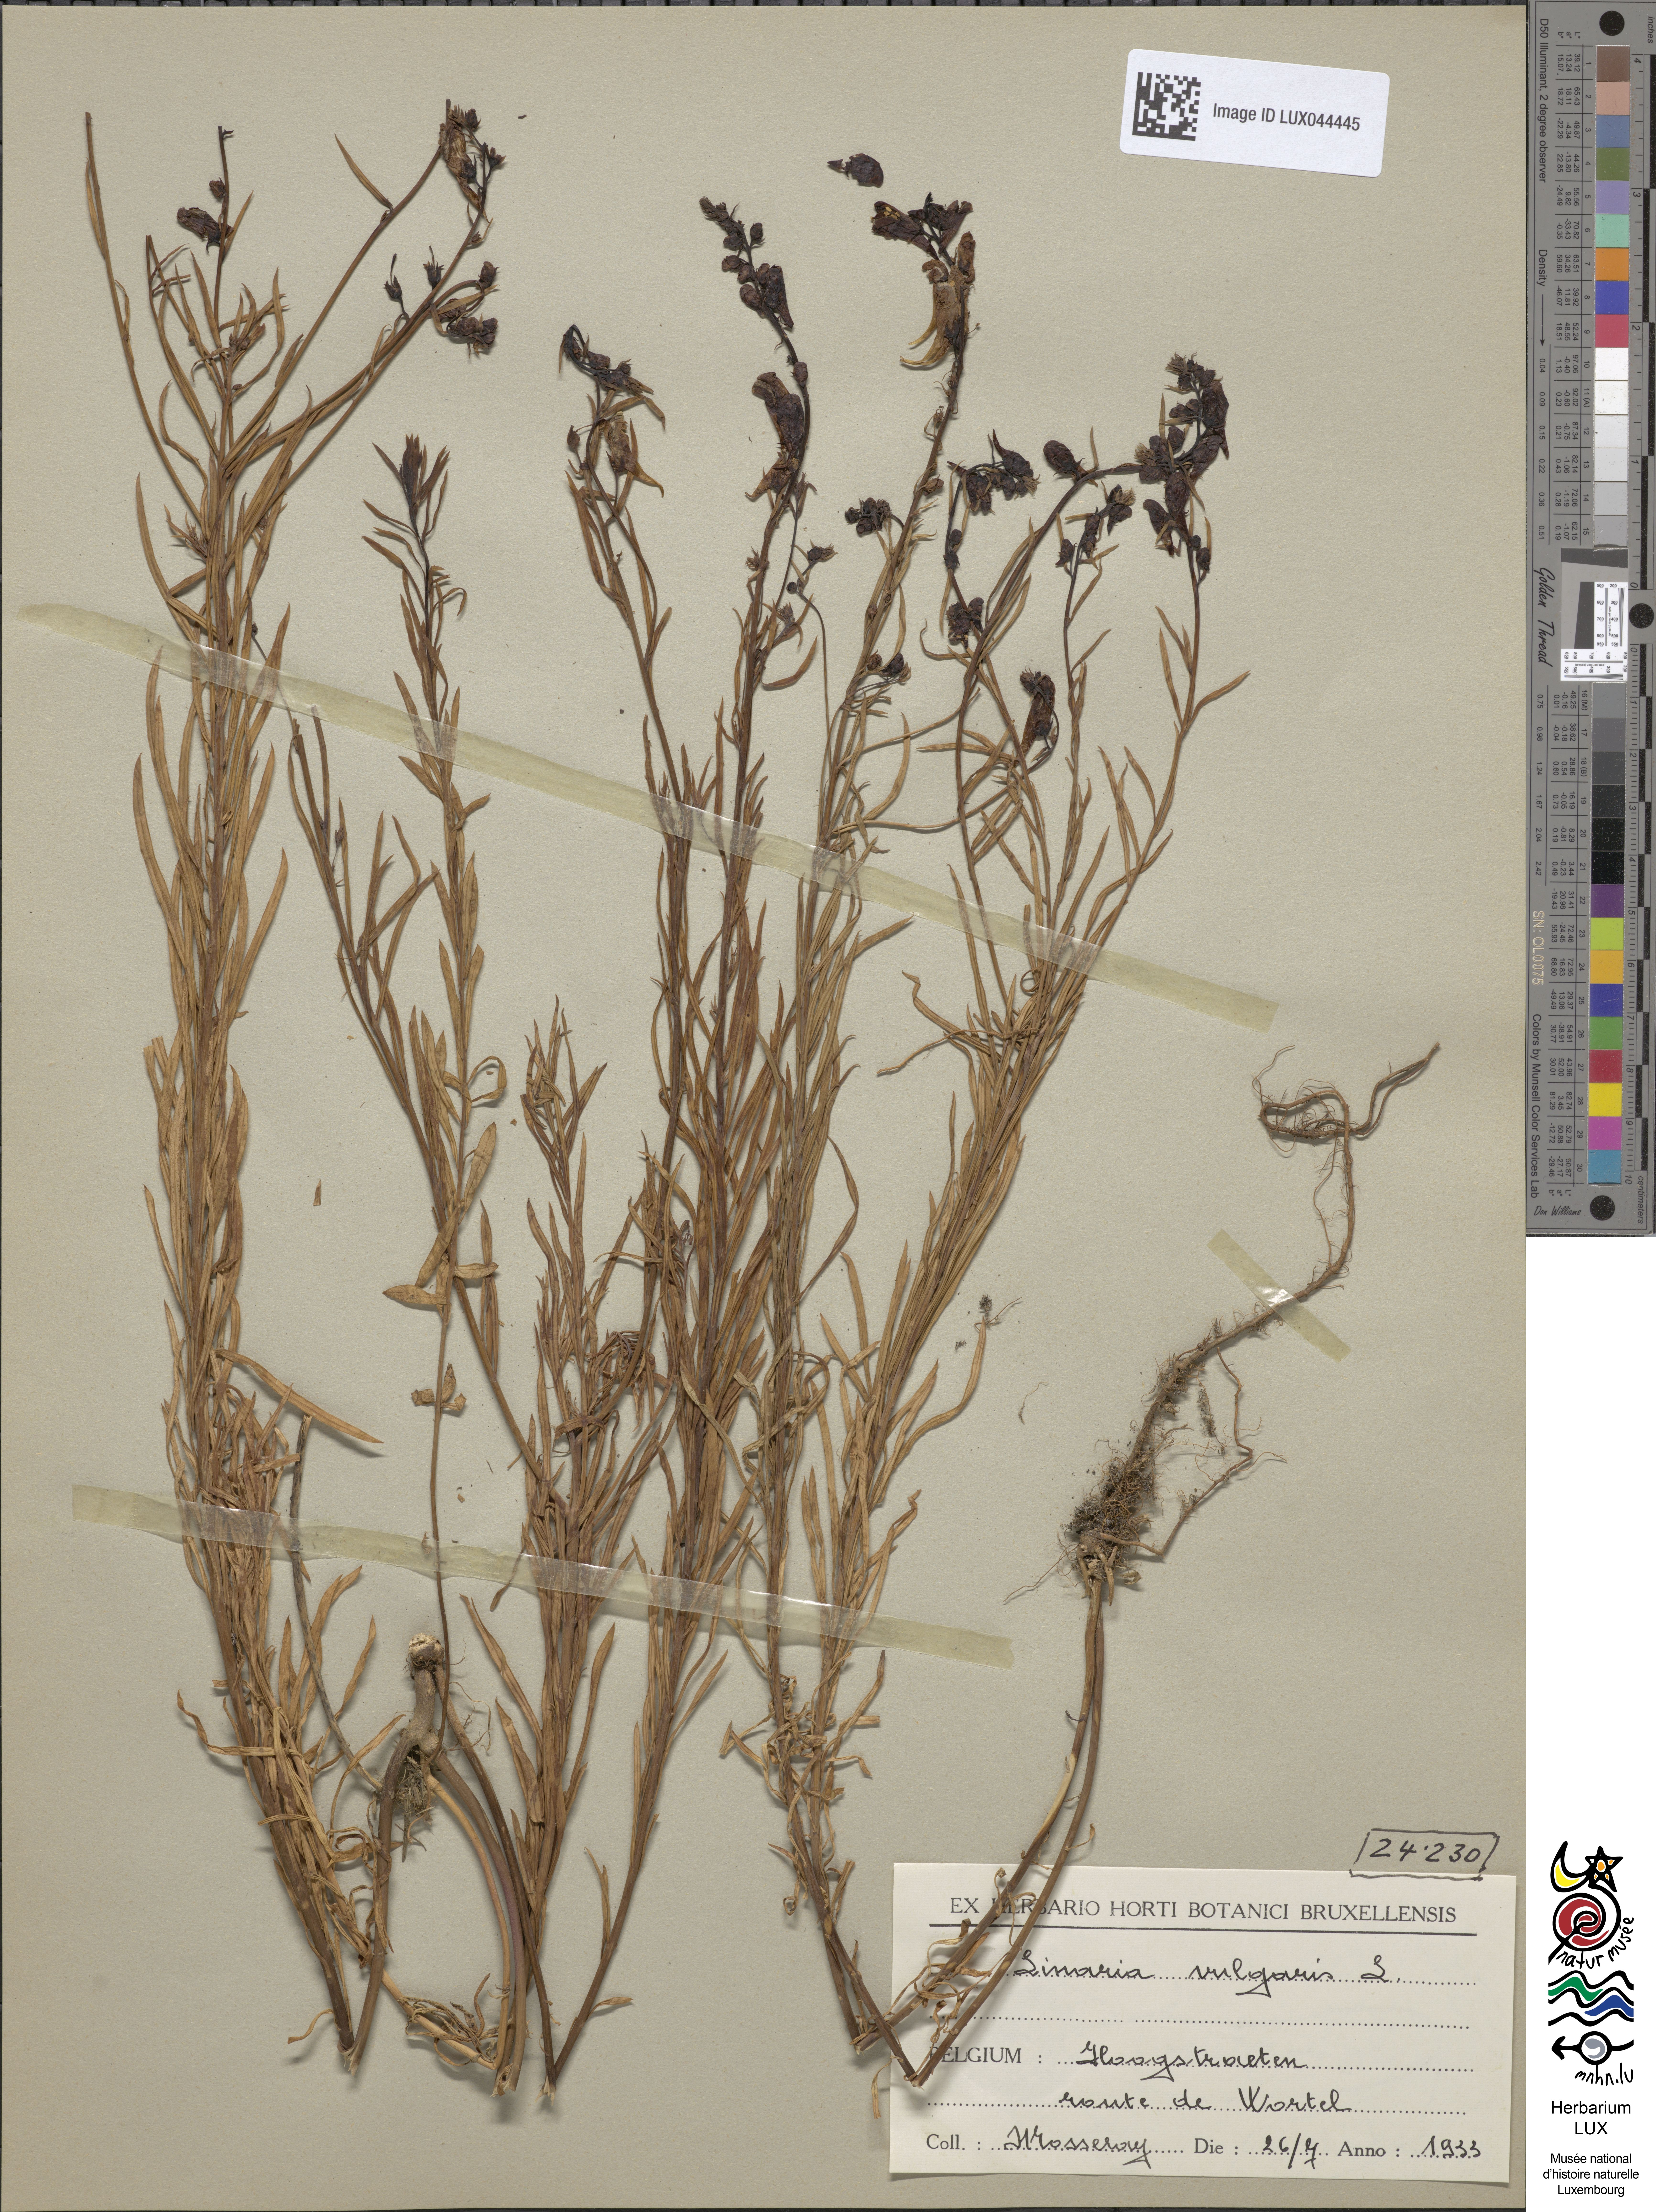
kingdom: Plantae
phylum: Tracheophyta
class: Magnoliopsida
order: Lamiales
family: Plantaginaceae
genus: Linaria
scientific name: Linaria vulgaris
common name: Butter and eggs
